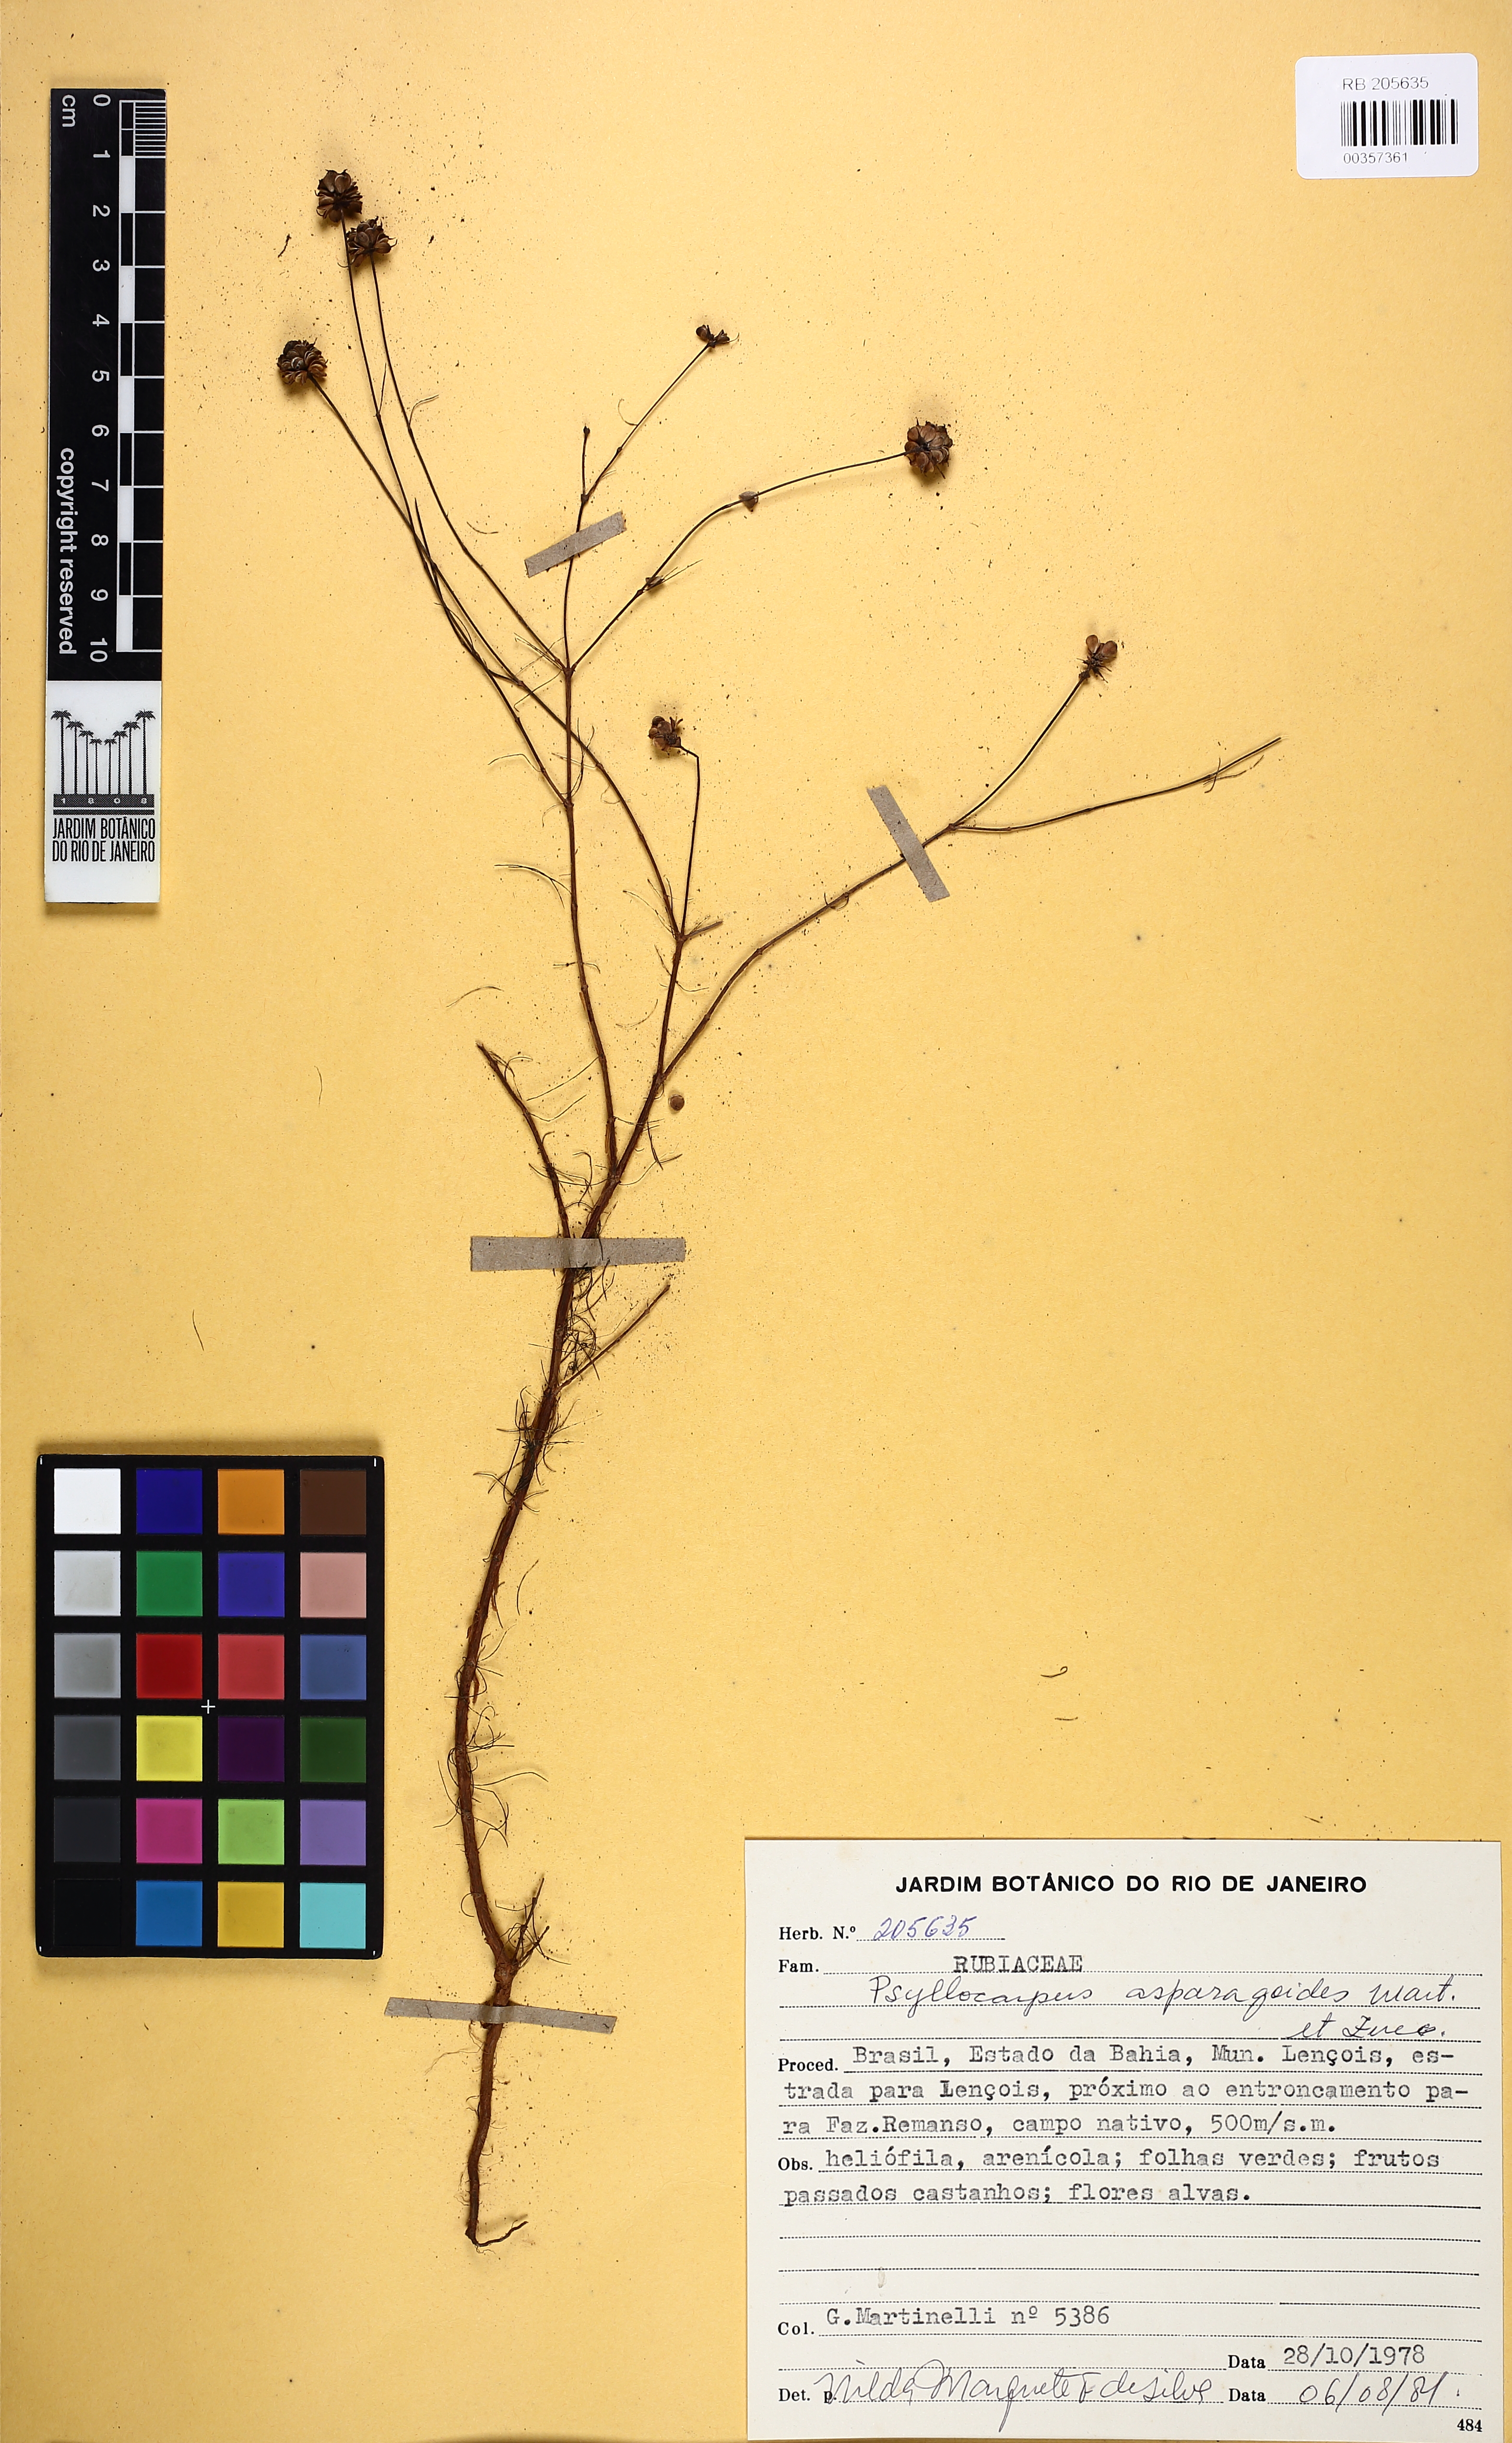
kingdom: Plantae
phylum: Tracheophyta
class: Magnoliopsida
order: Gentianales
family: Rubiaceae
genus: Psyllocarpus
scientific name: Psyllocarpus asparagoides
